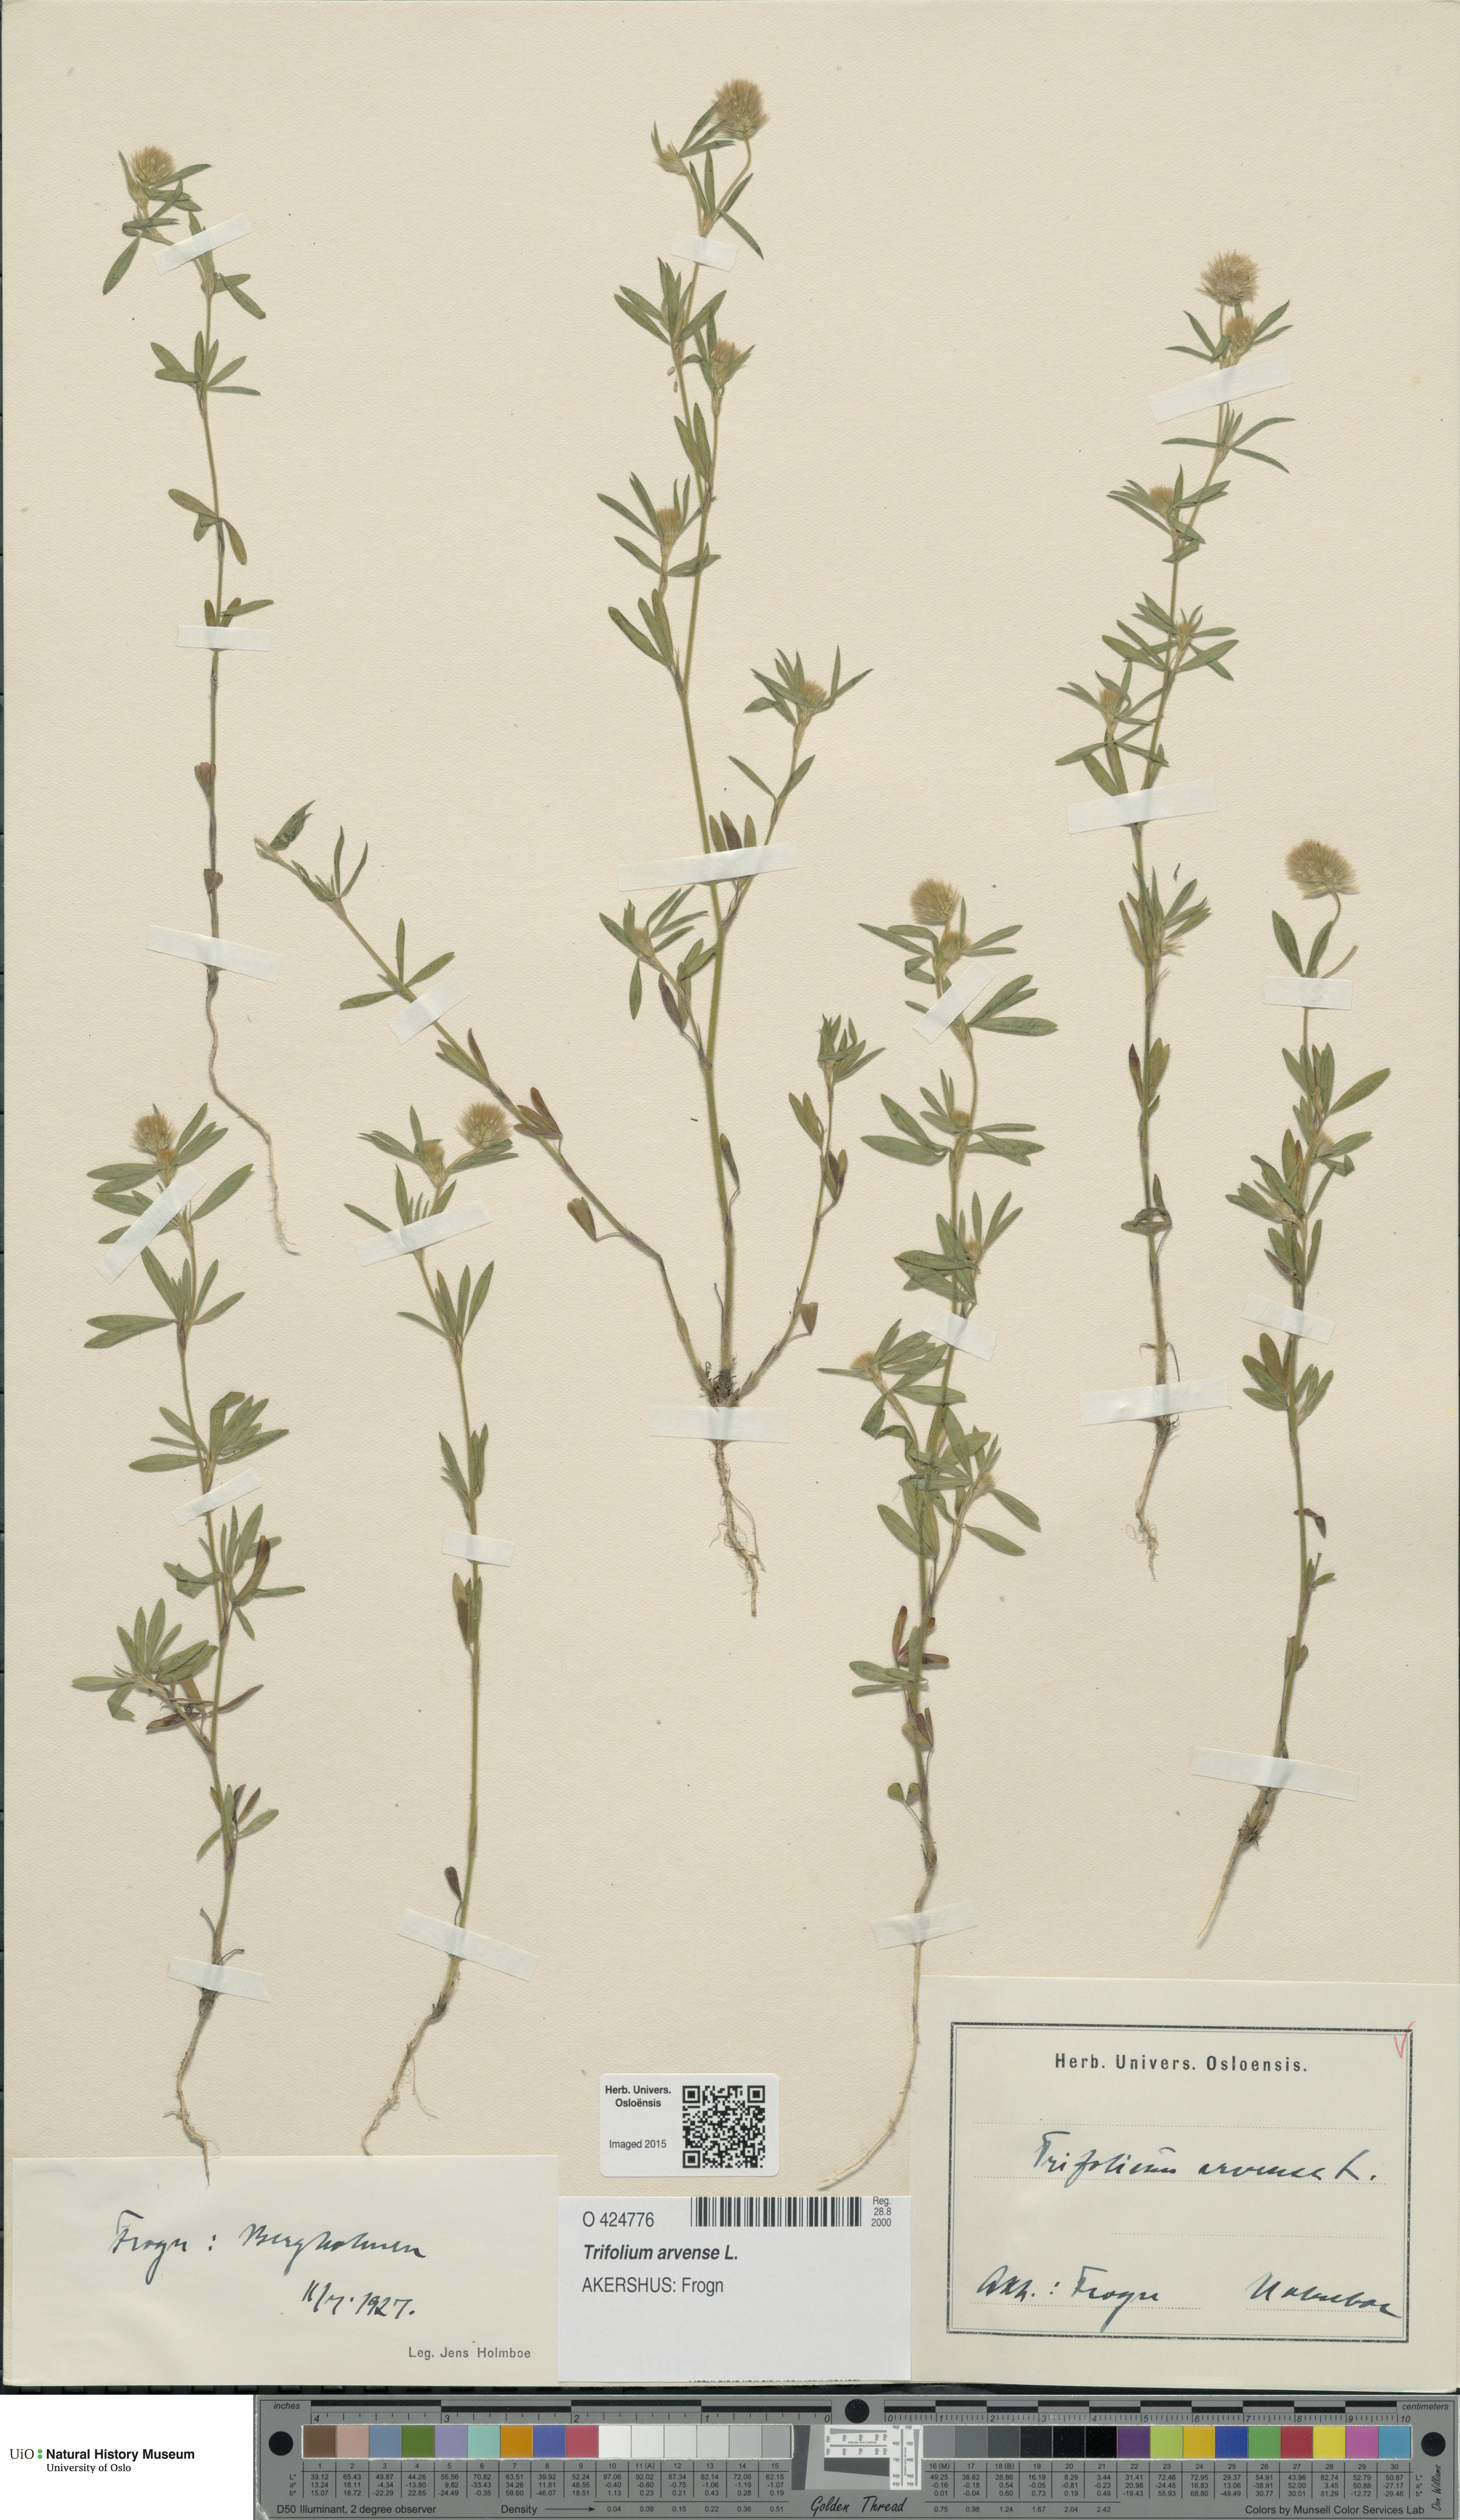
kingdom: Plantae
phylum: Tracheophyta
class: Magnoliopsida
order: Fabales
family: Fabaceae
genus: Trifolium
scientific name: Trifolium arvense
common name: Hare's-foot clover
